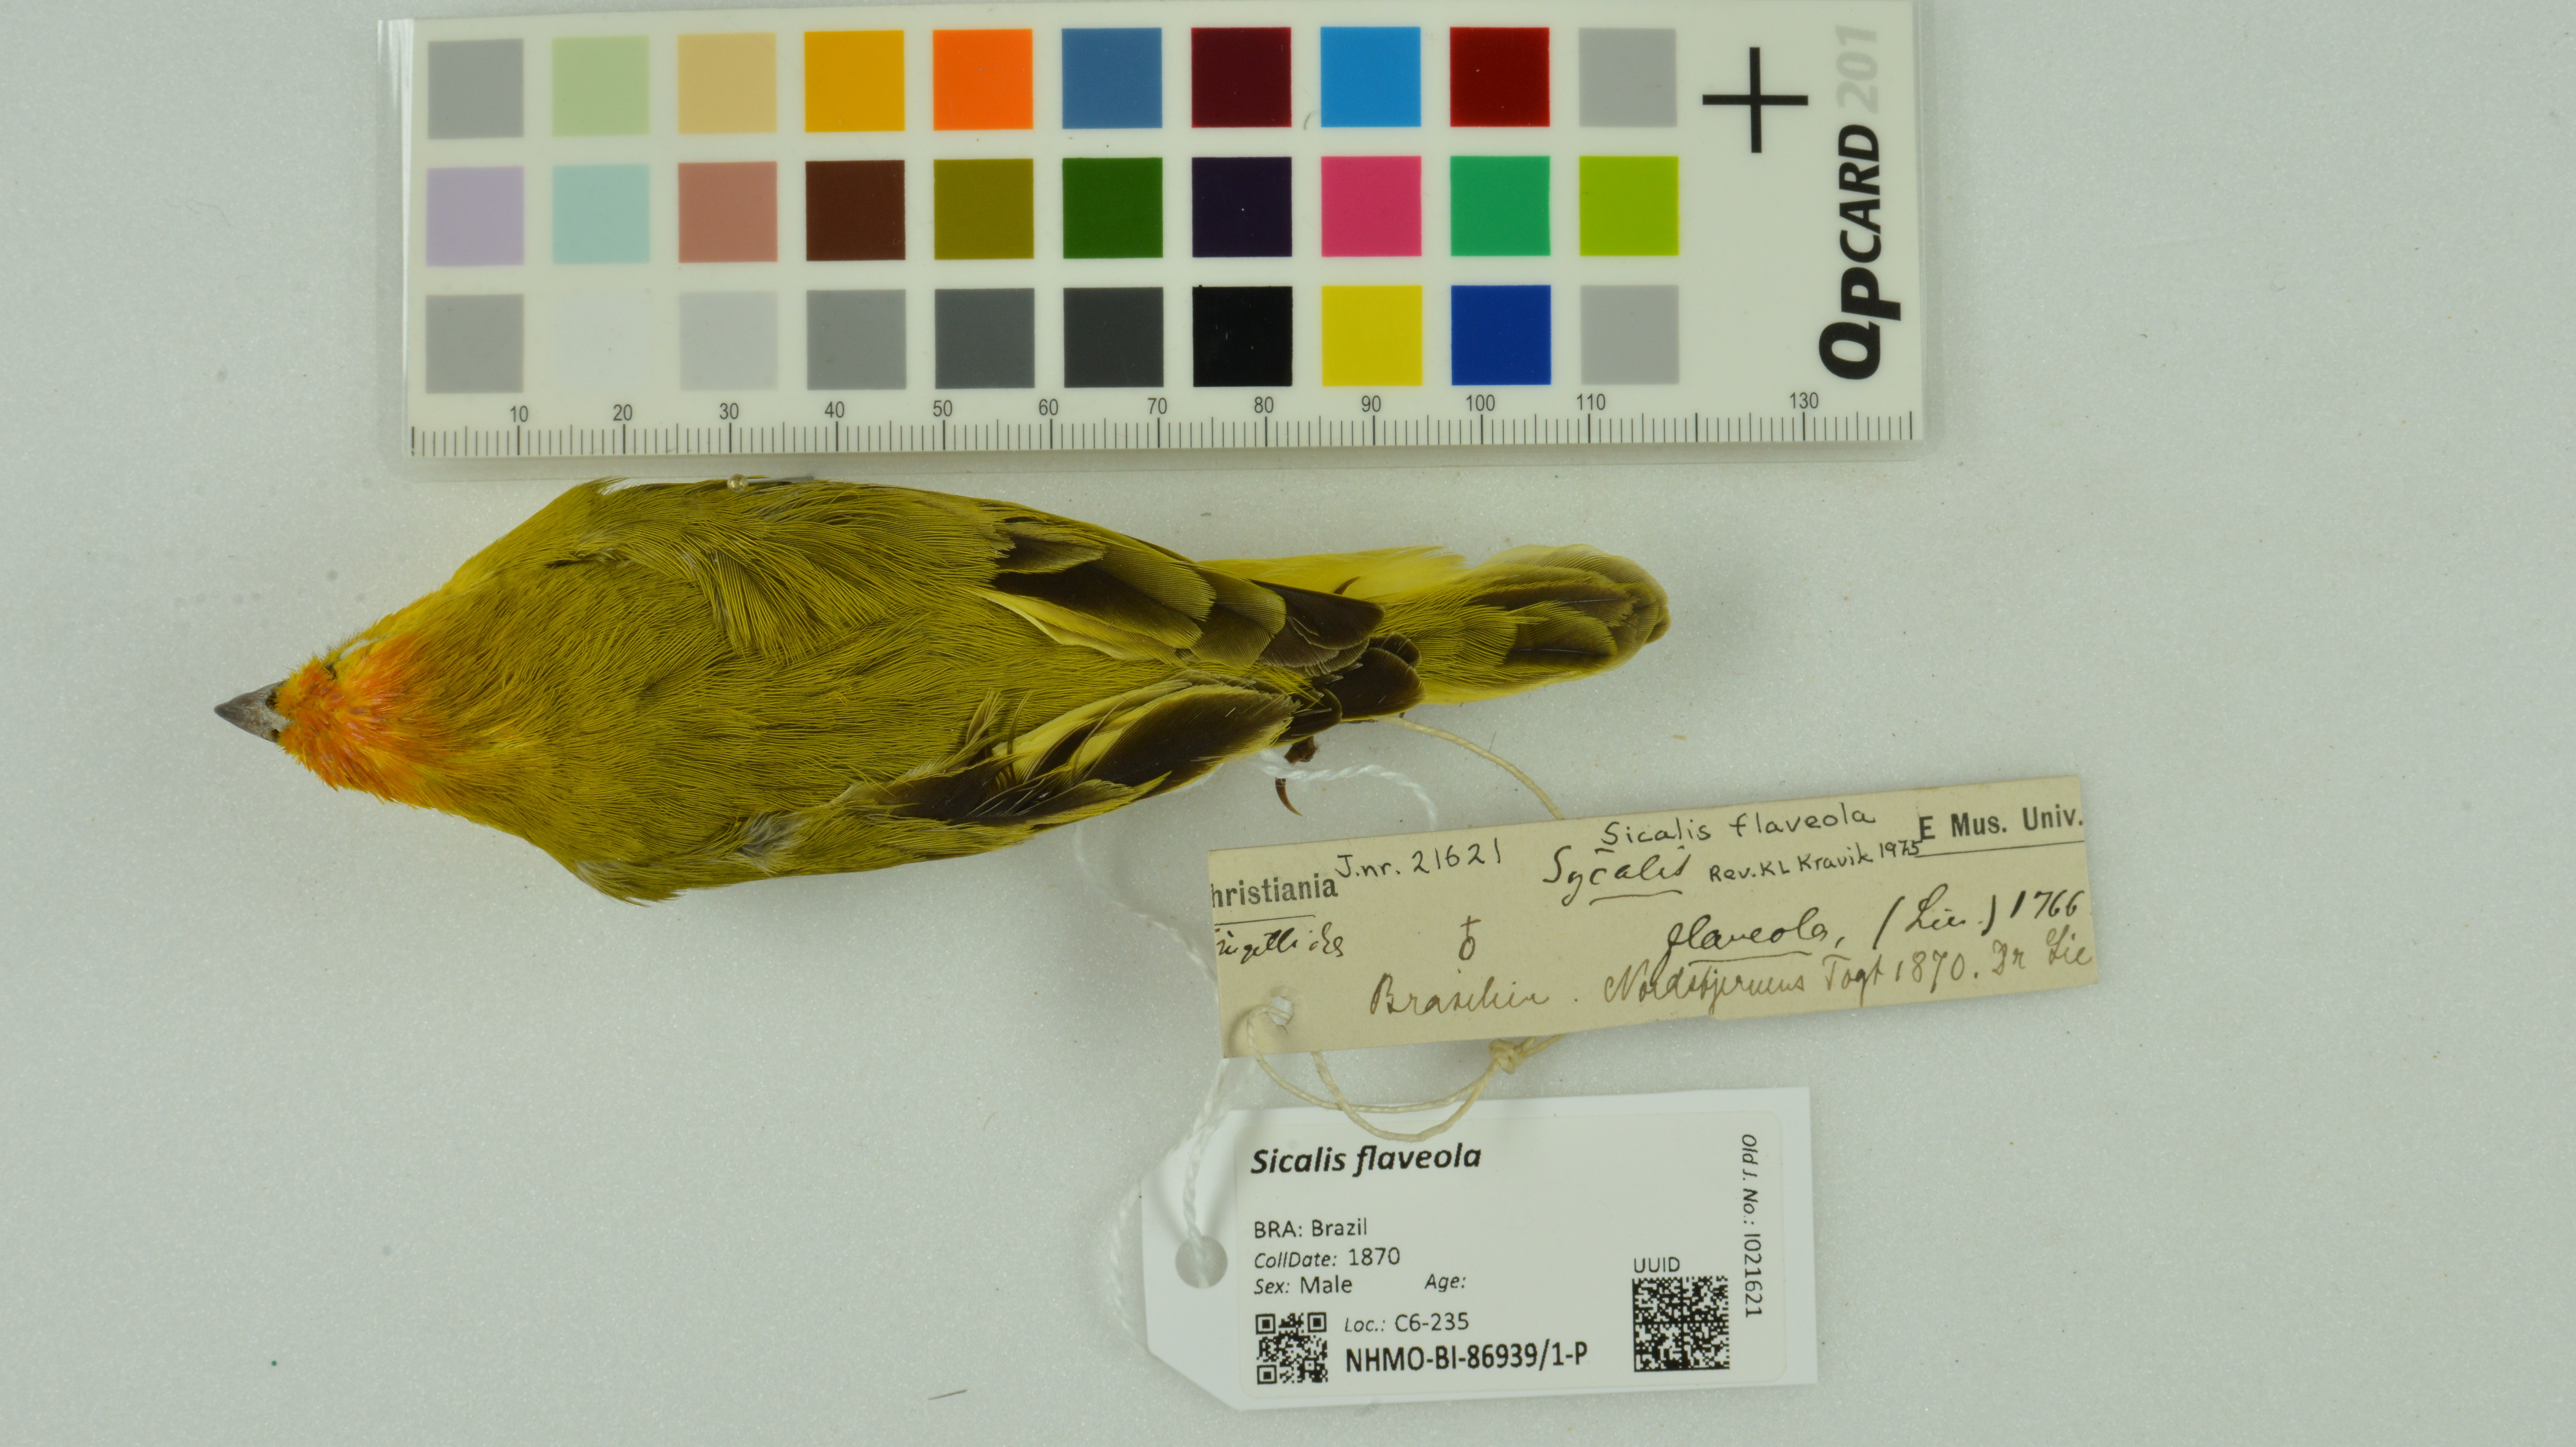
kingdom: Animalia
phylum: Chordata
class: Aves
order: Passeriformes
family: Thraupidae
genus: Sicalis
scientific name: Sicalis flaveola
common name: Saffron finch
